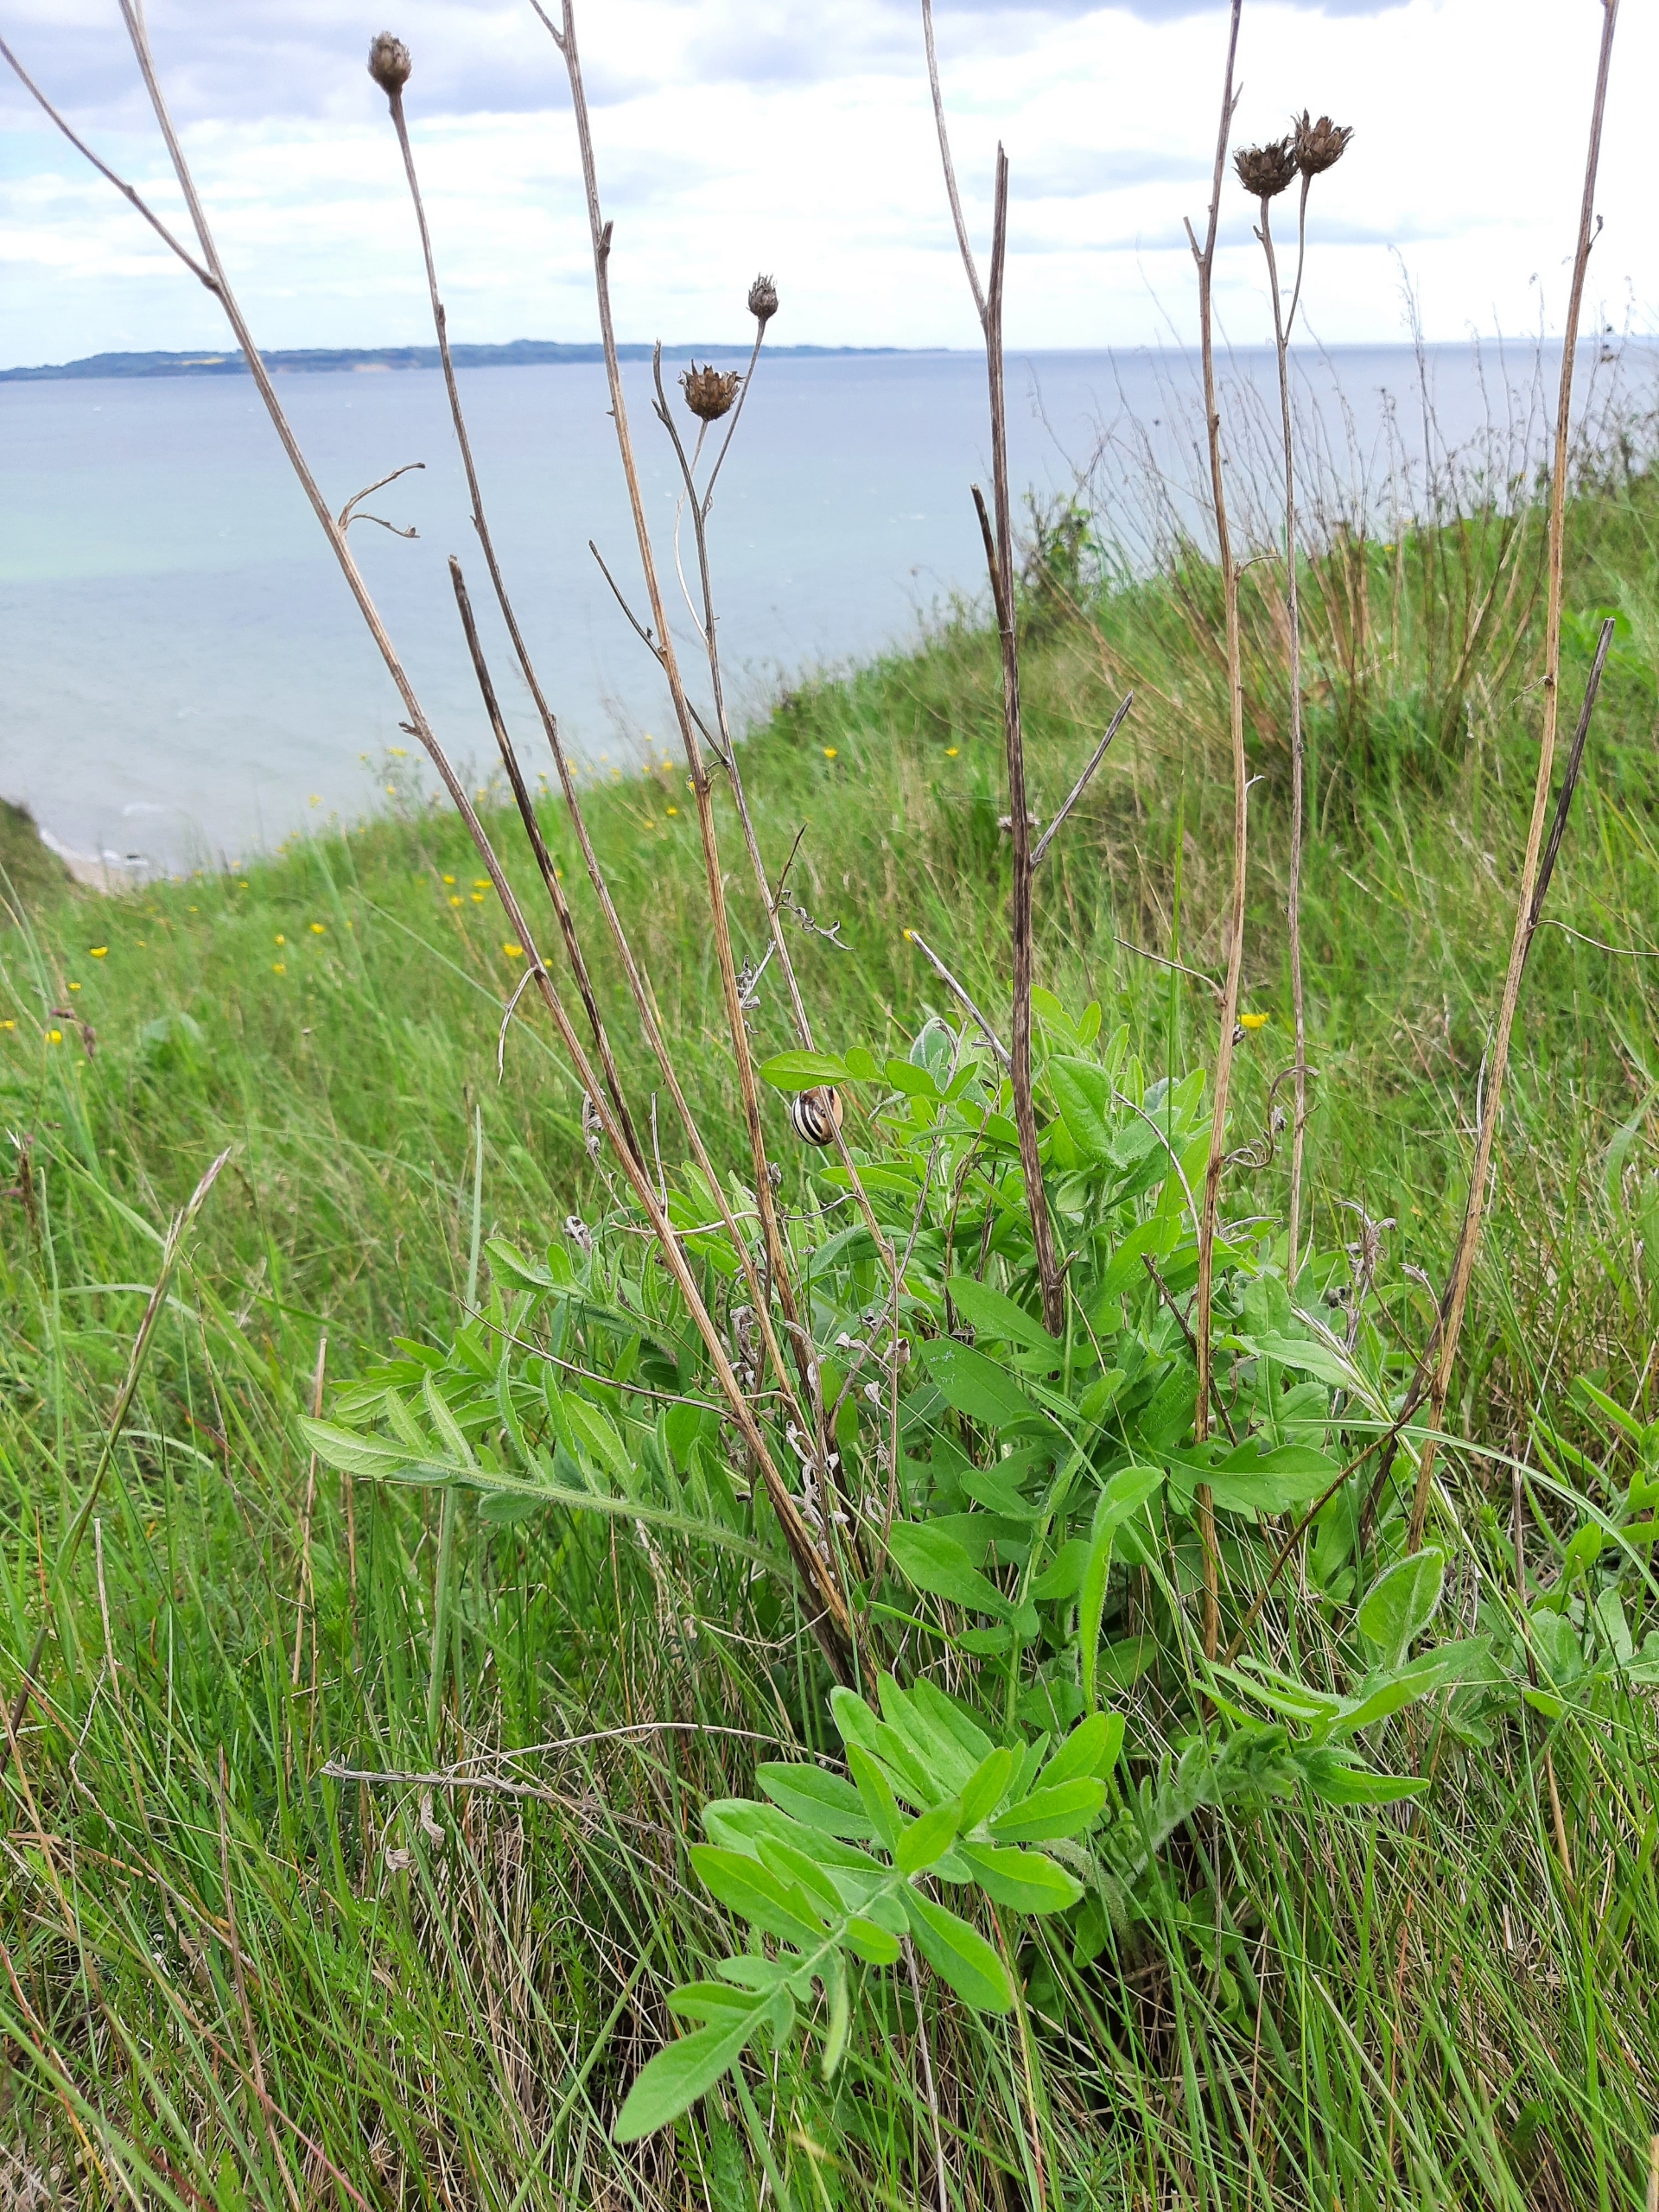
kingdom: Plantae
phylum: Tracheophyta
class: Magnoliopsida
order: Asterales
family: Asteraceae
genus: Centaurea
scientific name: Centaurea scabiosa
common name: Stor knopurt
